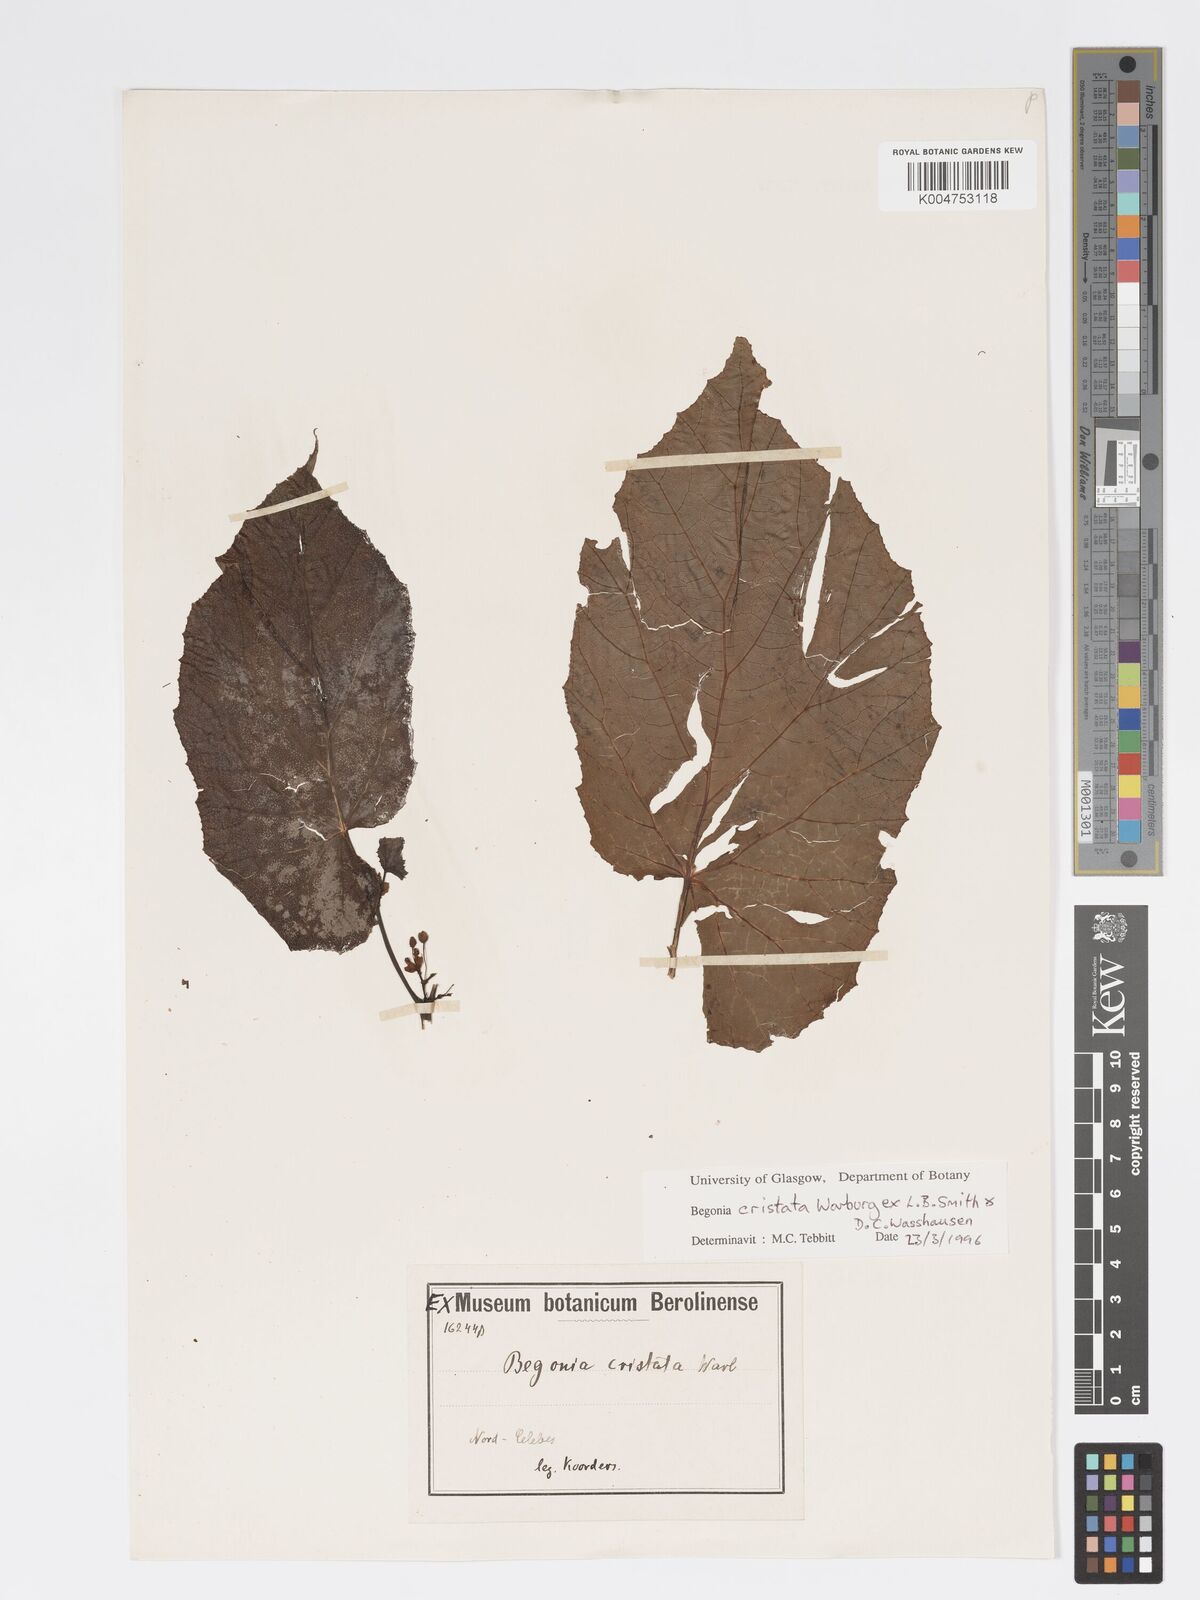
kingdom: Plantae
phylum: Tracheophyta
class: Magnoliopsida
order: Cucurbitales
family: Begoniaceae
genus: Begonia
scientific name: Begonia
